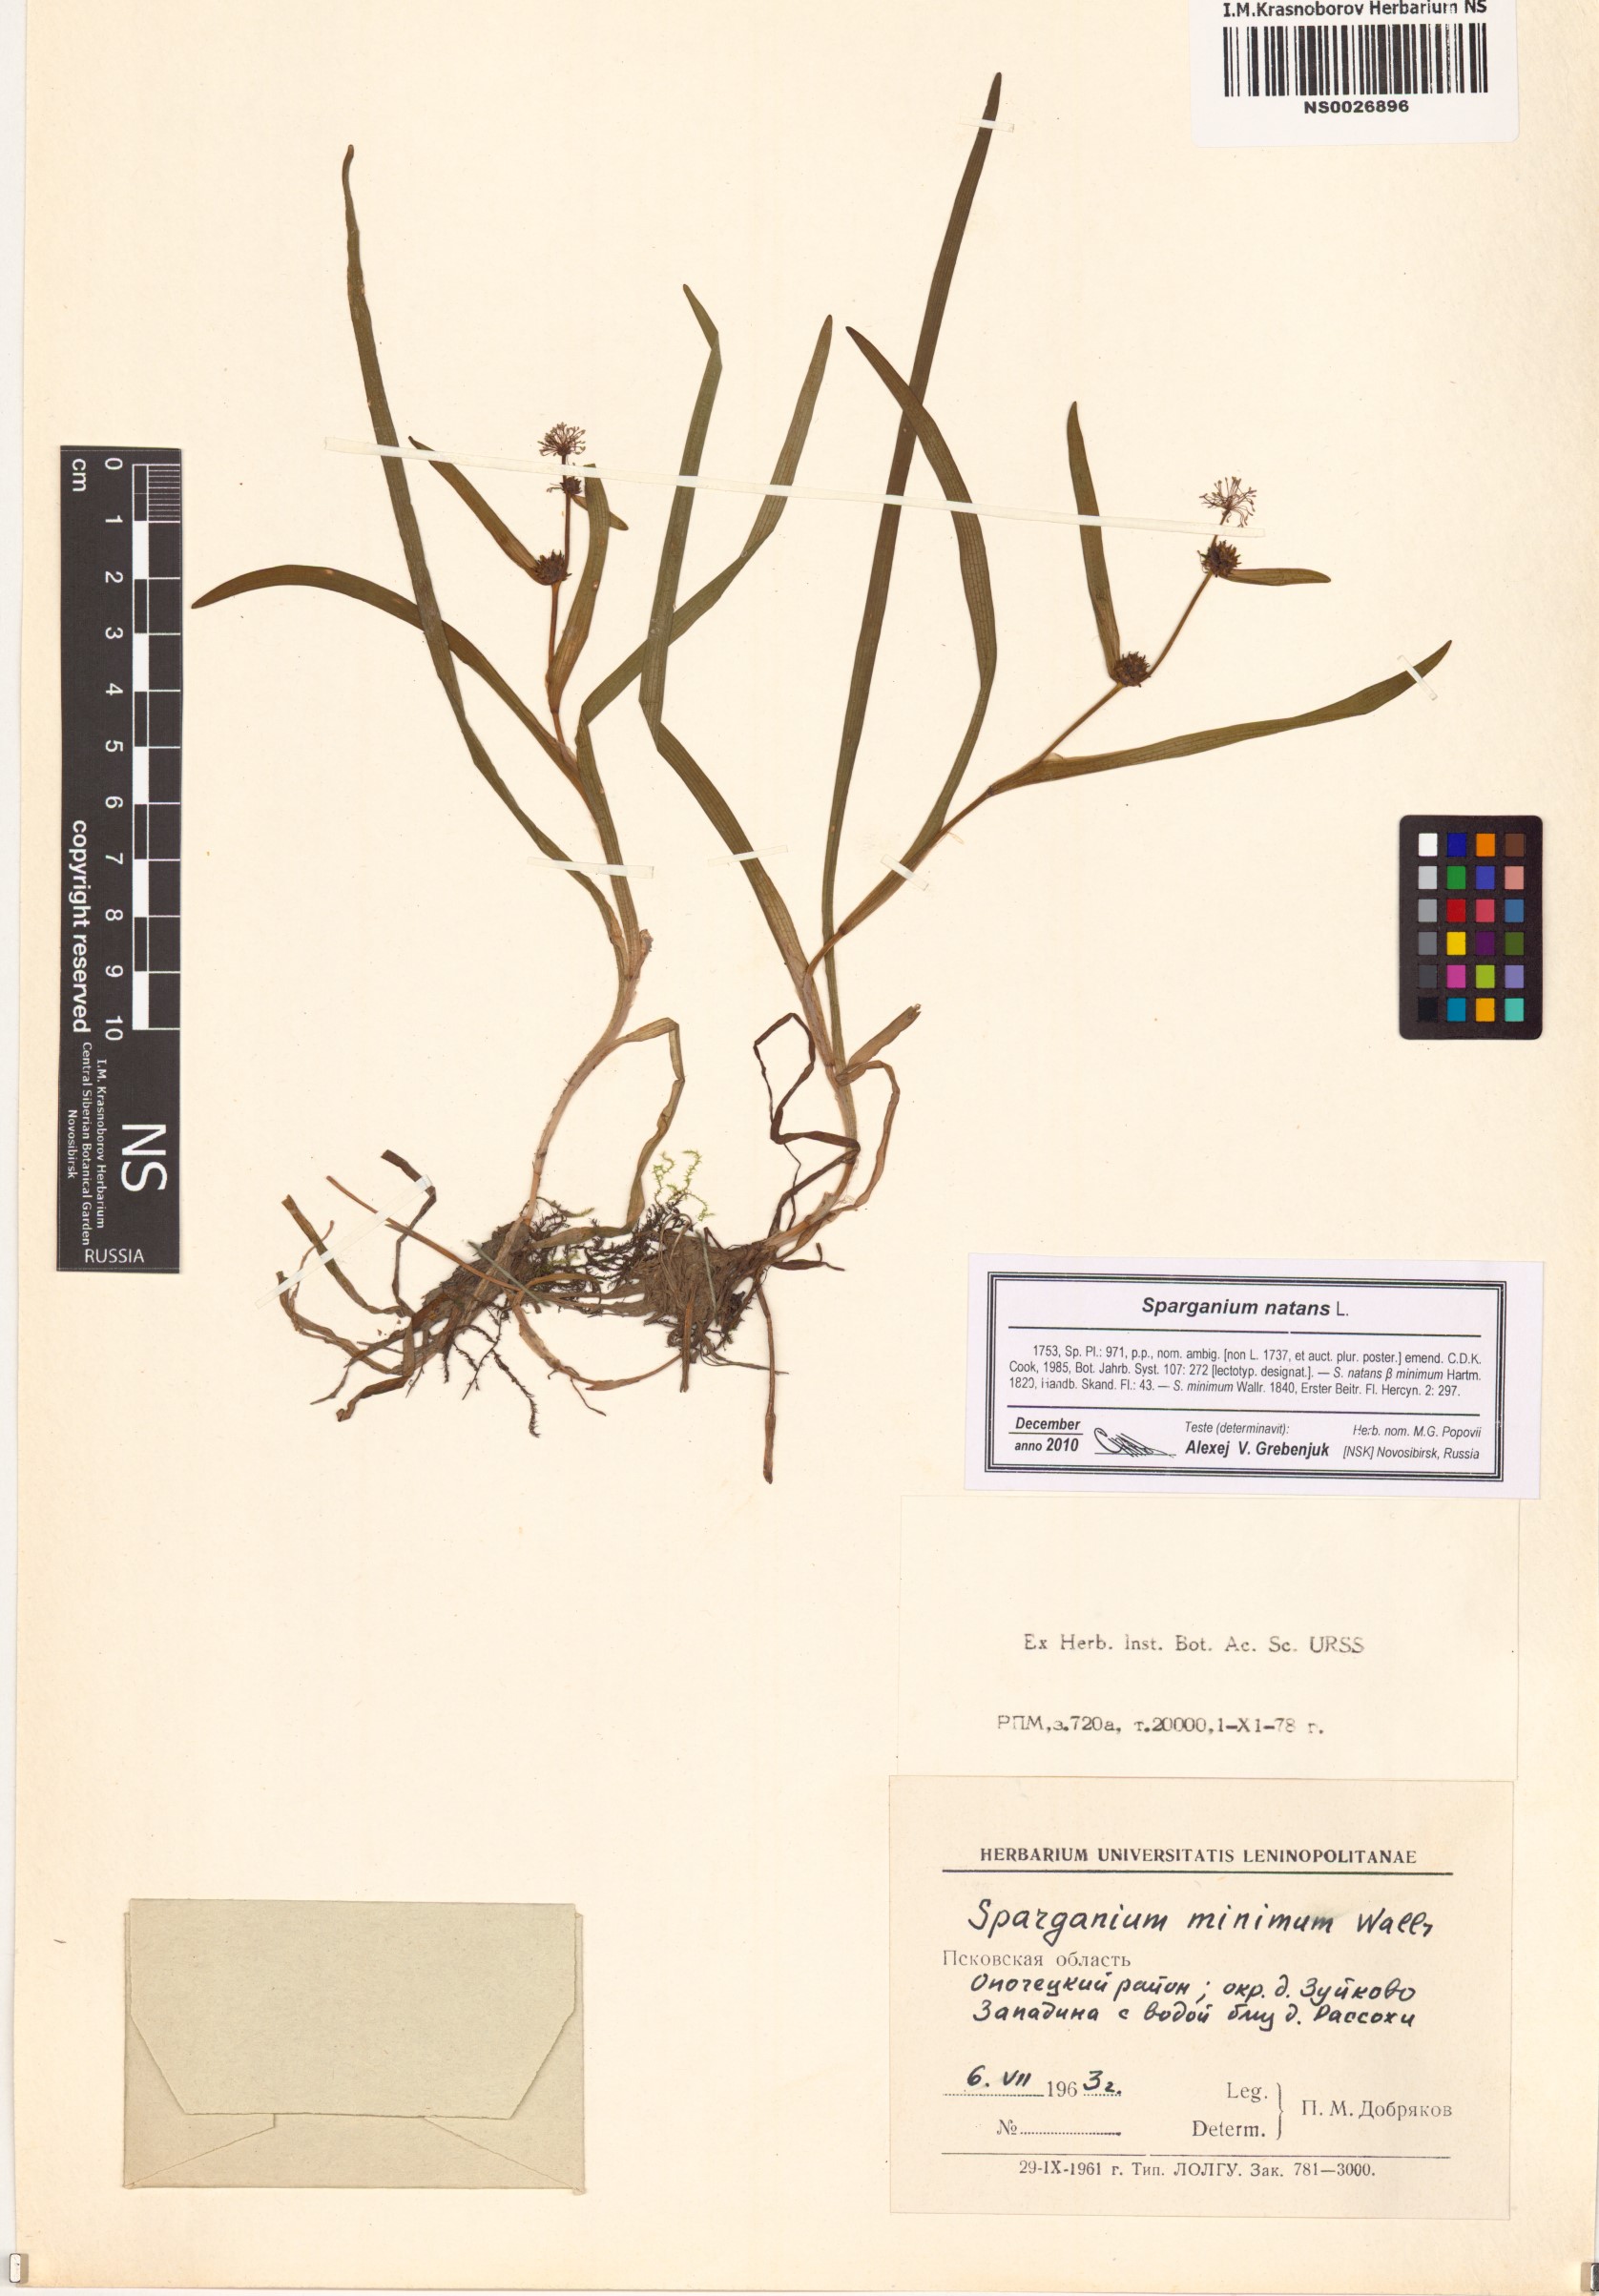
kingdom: Plantae
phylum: Tracheophyta
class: Liliopsida
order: Poales
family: Typhaceae
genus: Sparganium
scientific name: Sparganium natans
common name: Least bur-reed
